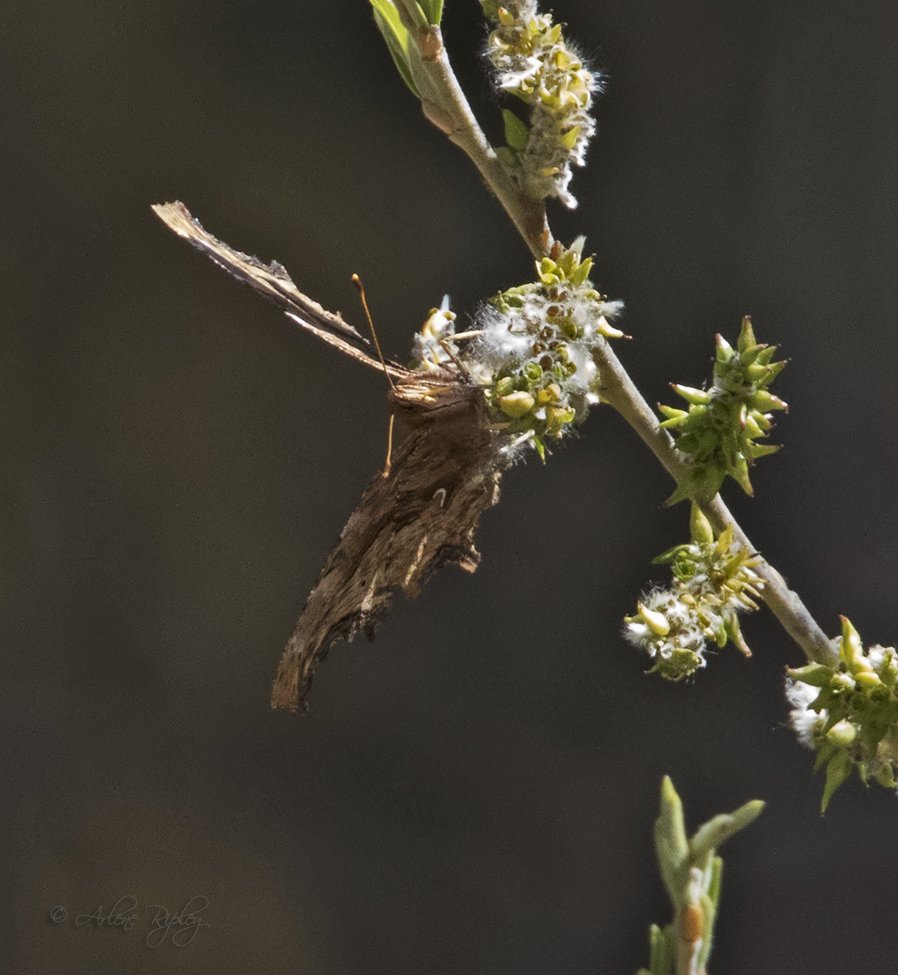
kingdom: Animalia
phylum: Arthropoda
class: Insecta
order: Lepidoptera
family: Nymphalidae
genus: Polygonia
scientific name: Polygonia satyrus
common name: Satyr Comma
